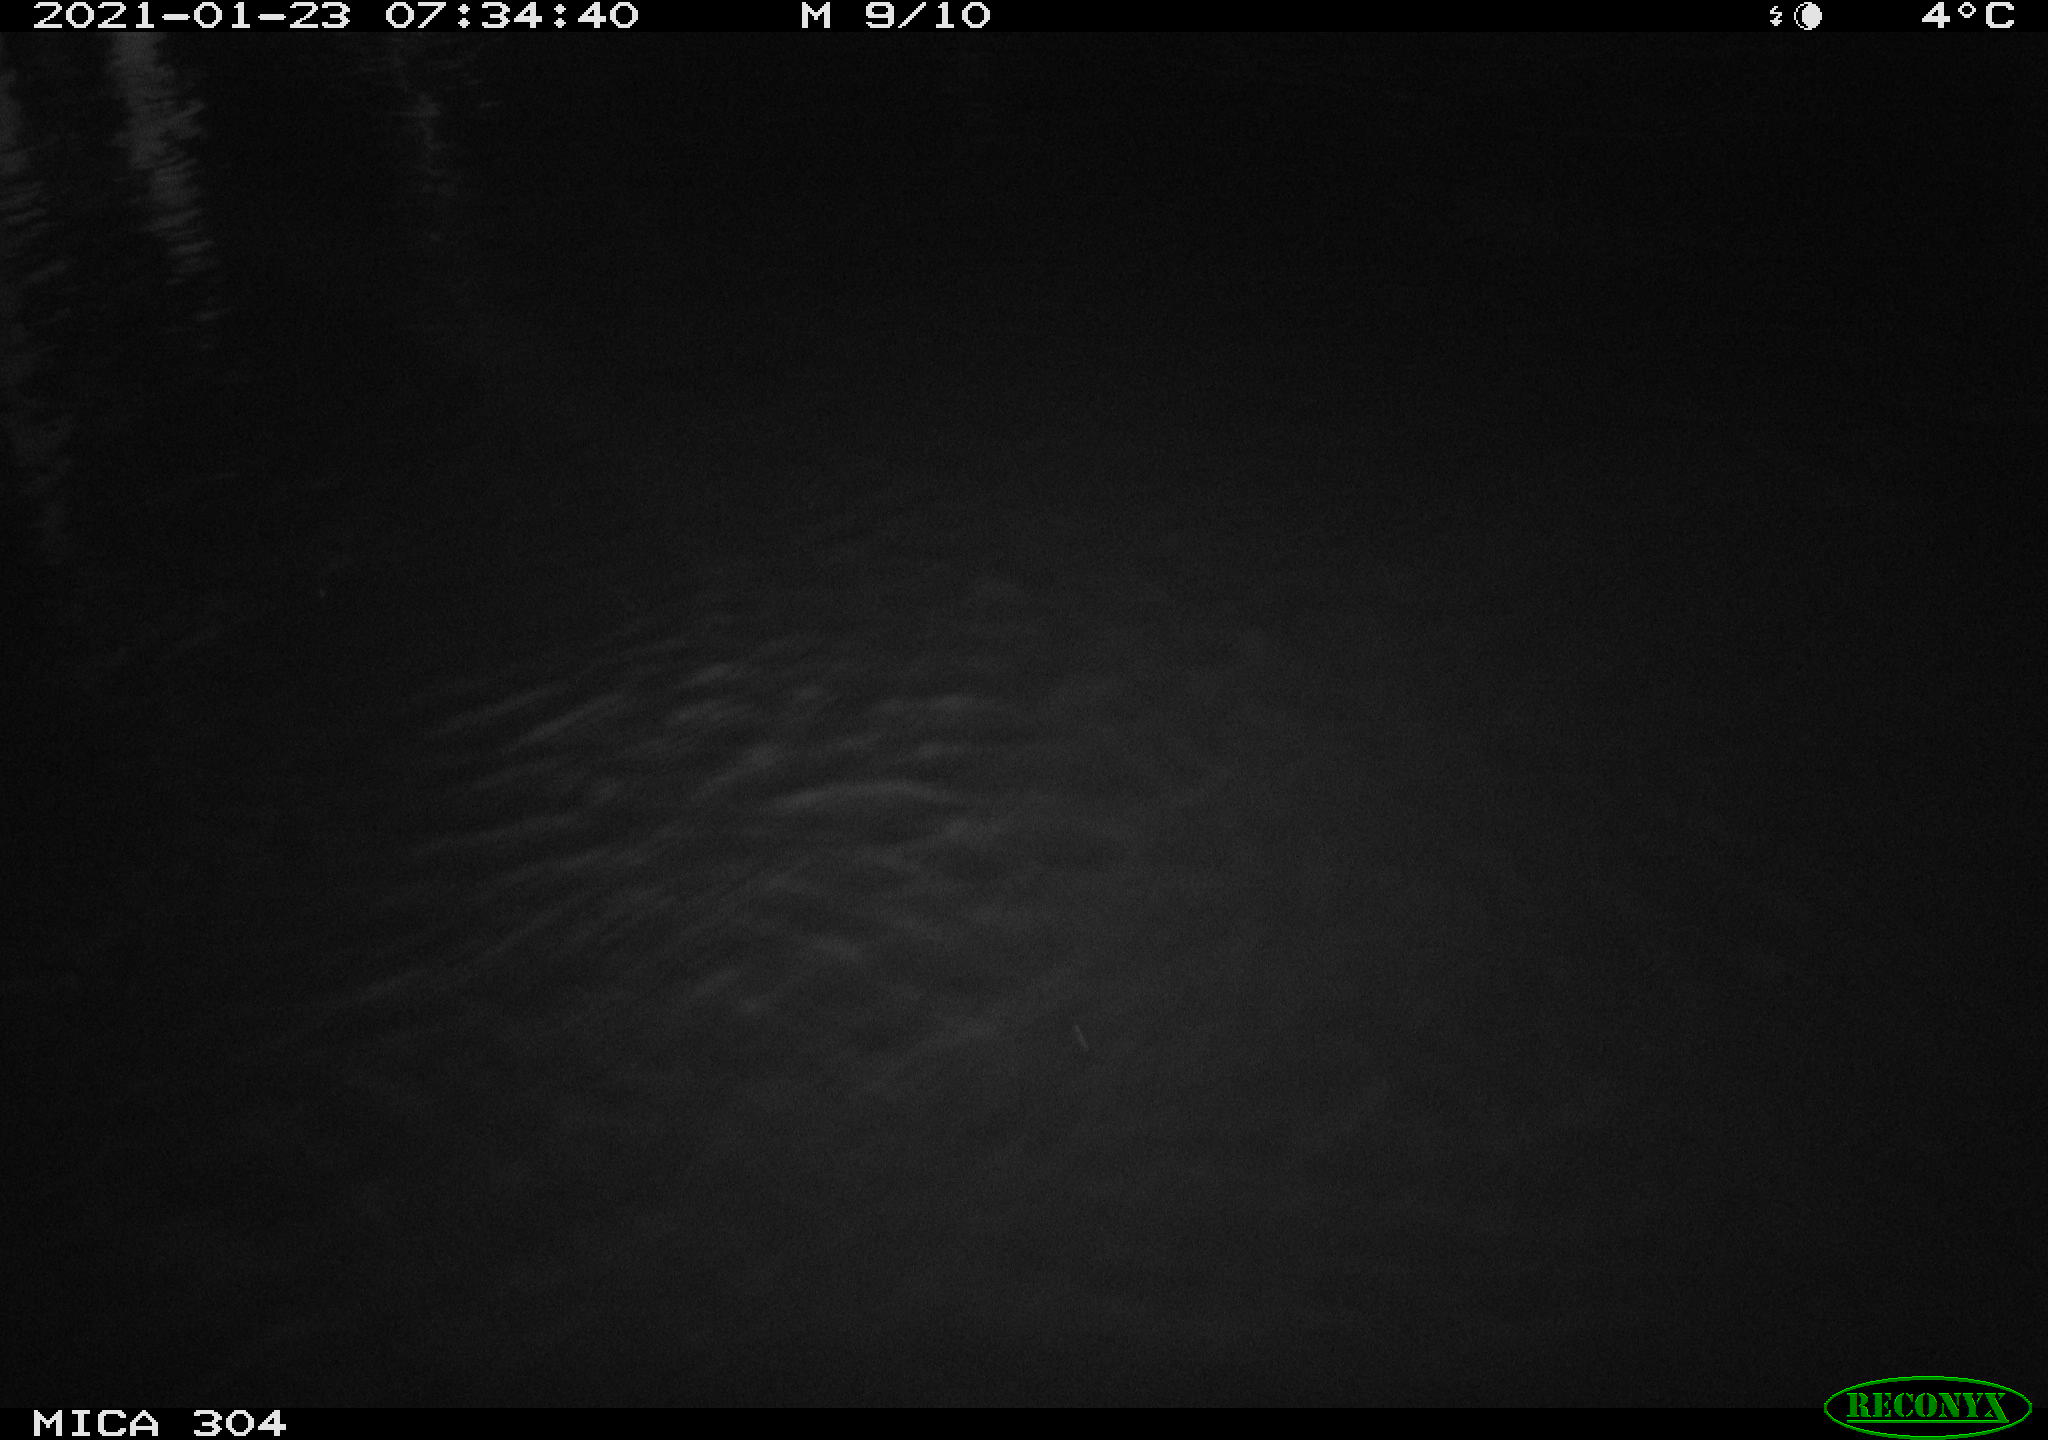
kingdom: Animalia
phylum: Chordata
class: Aves
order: Gruiformes
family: Rallidae
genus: Fulica
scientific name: Fulica atra
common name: Eurasian coot
